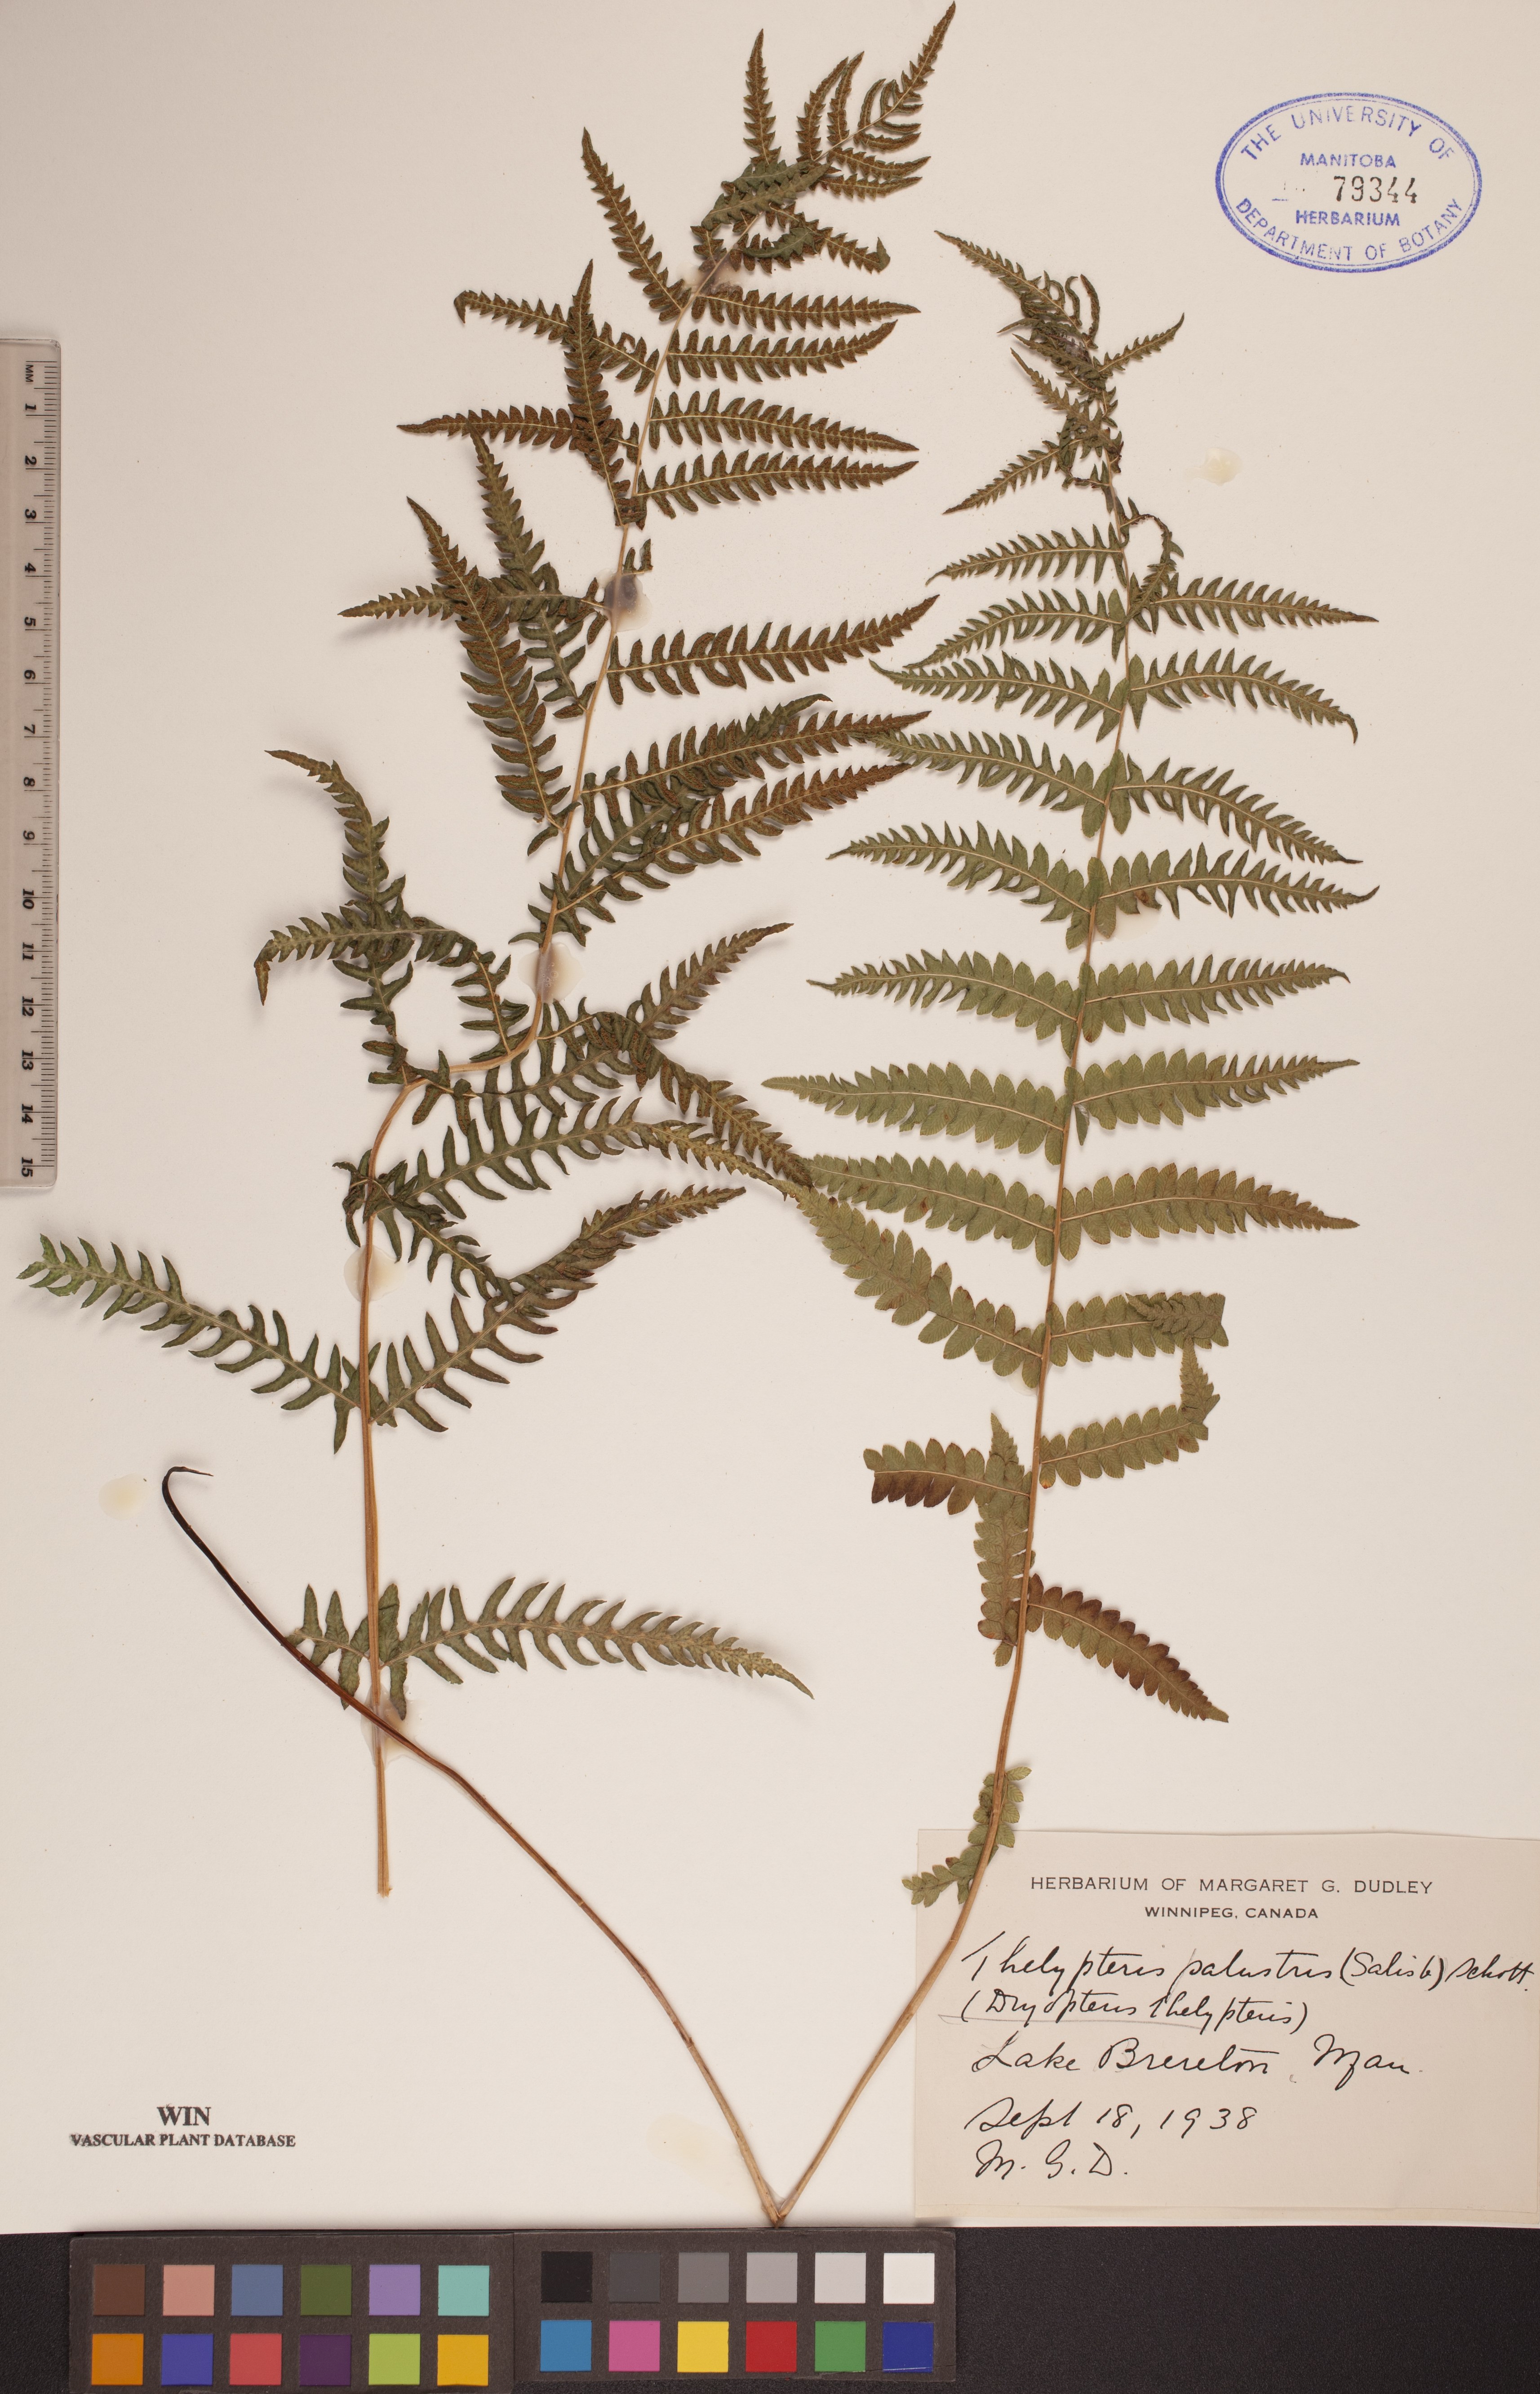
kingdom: Plantae
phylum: Tracheophyta
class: Polypodiopsida
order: Polypodiales
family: Thelypteridaceae
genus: Thelypteris
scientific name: Thelypteris palustris
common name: Marsh fern
